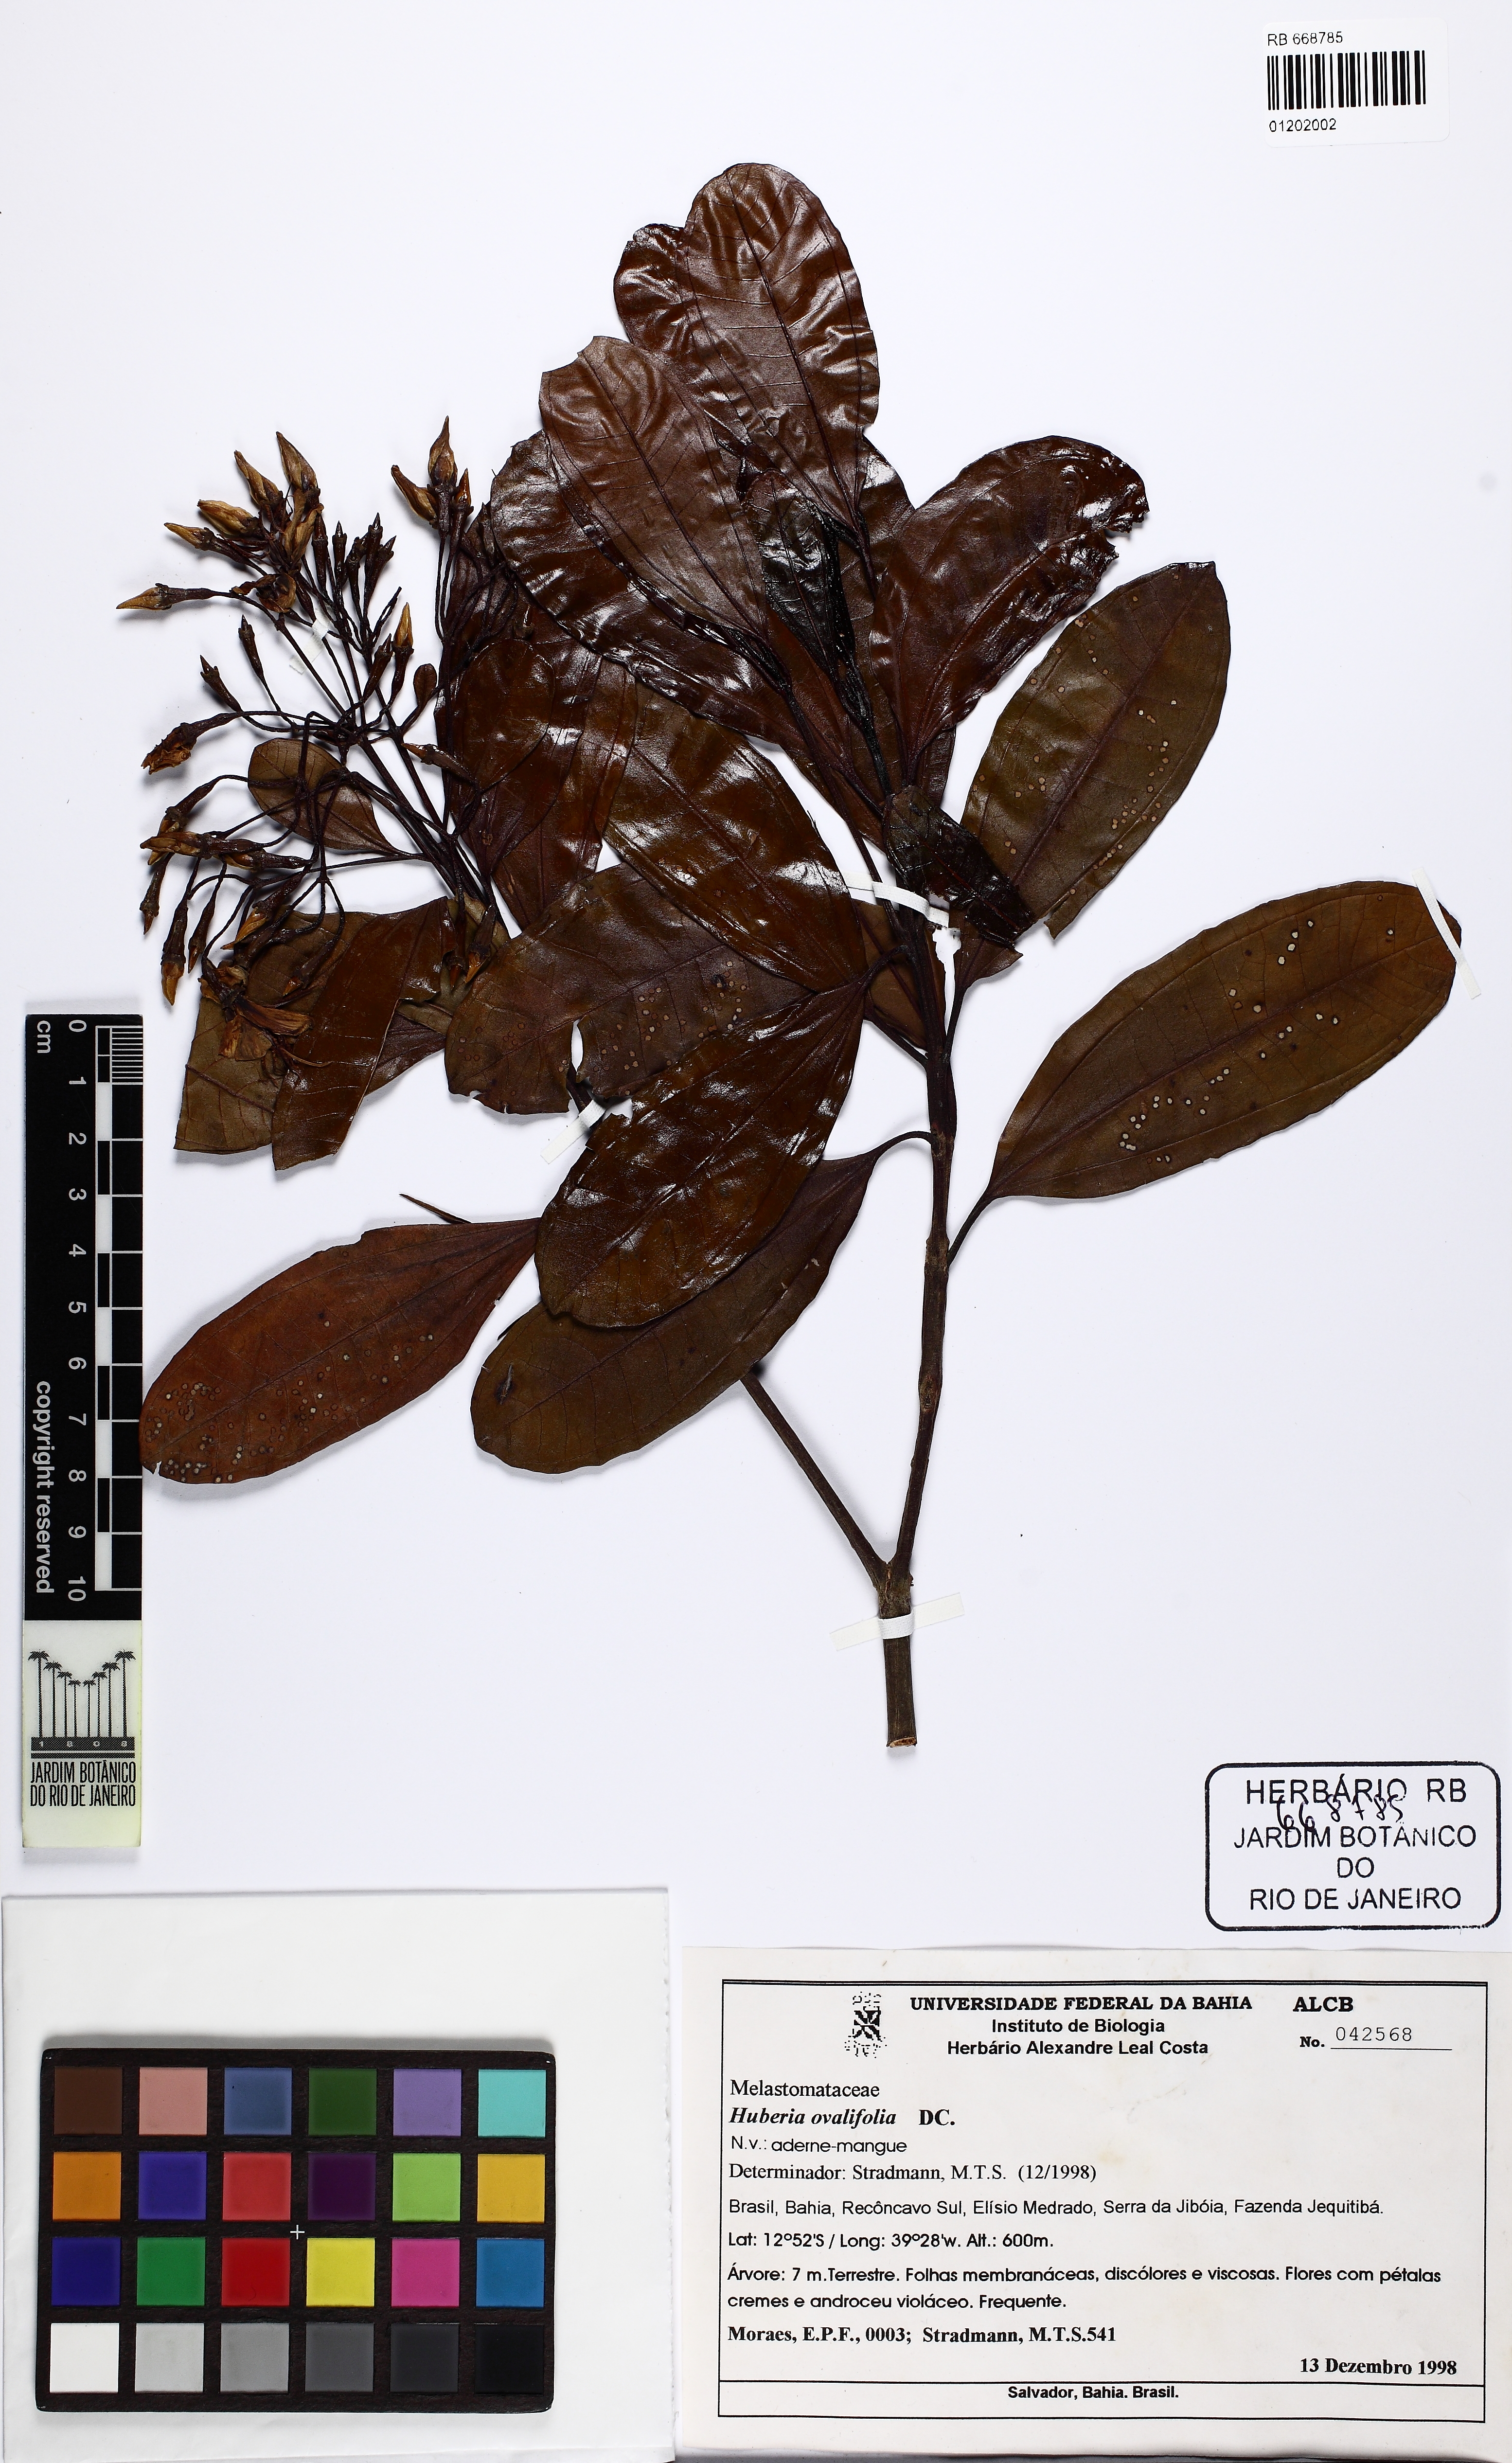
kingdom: Plantae
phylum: Tracheophyta
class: Magnoliopsida
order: Myrtales
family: Melastomataceae
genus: Huberia
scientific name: Huberia ovalifolia
